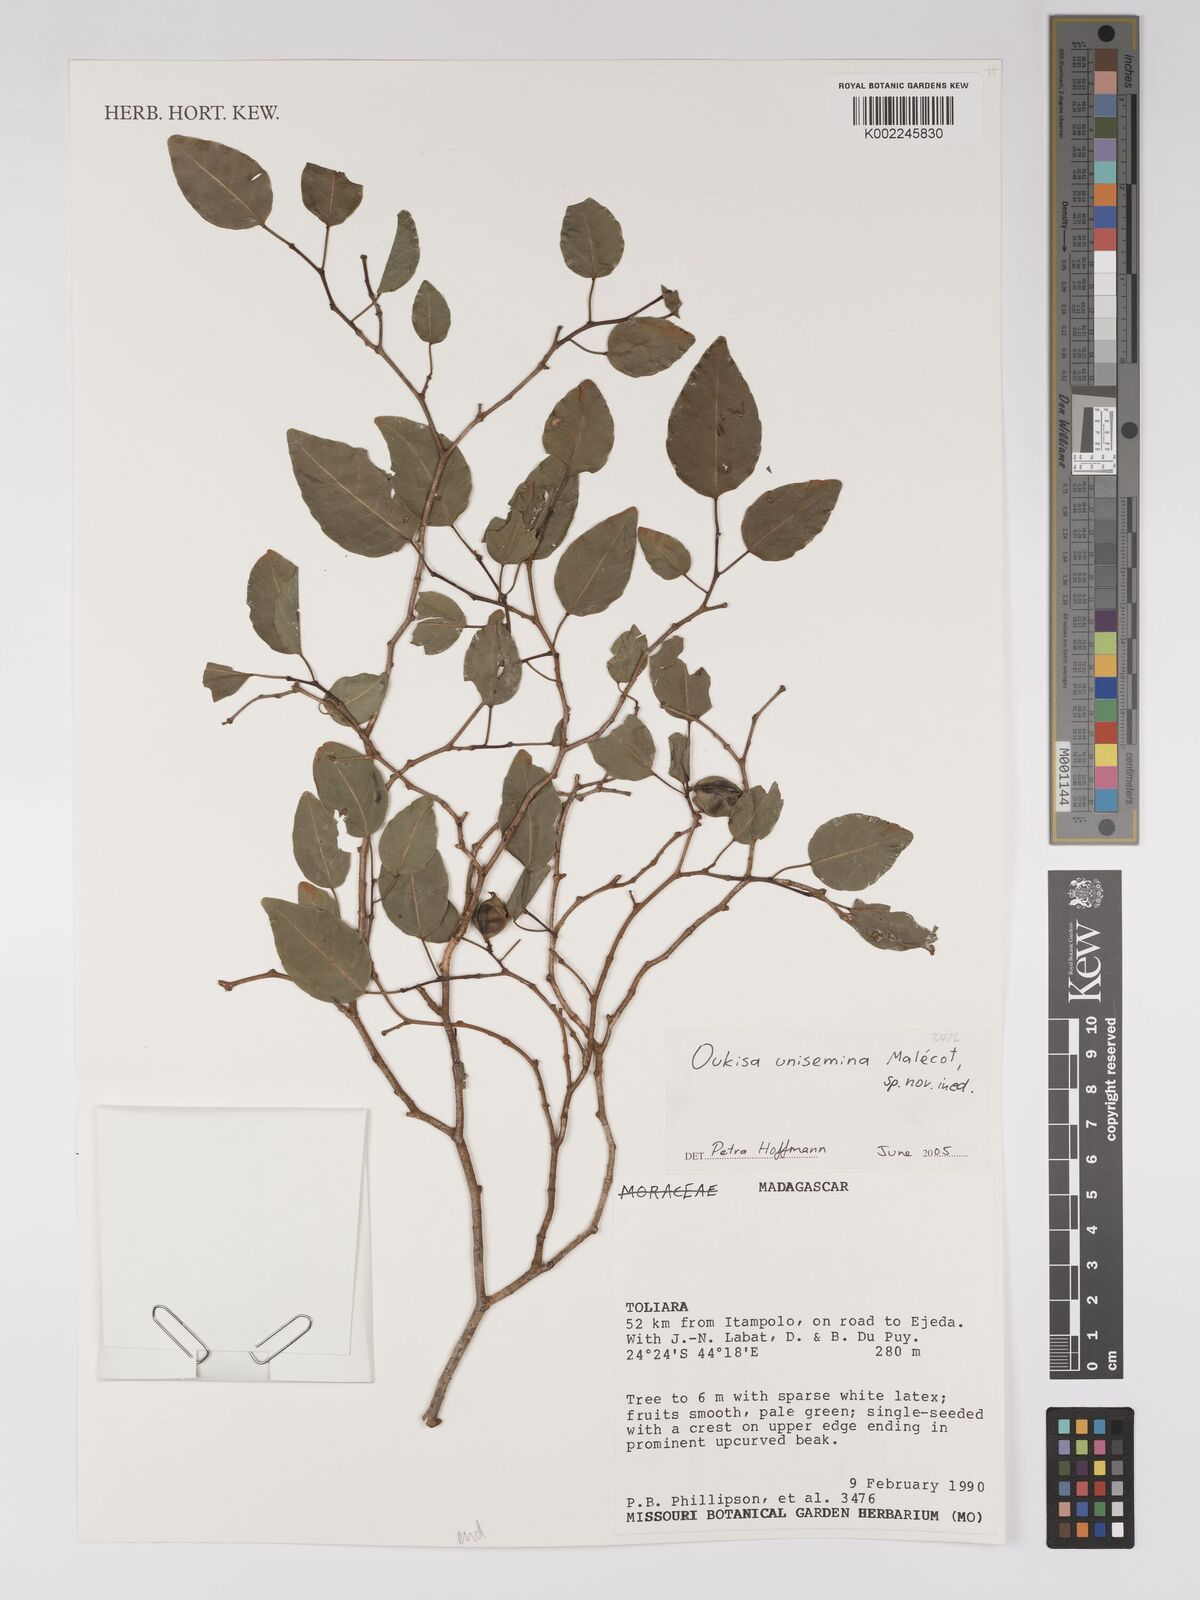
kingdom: Plantae
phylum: Tracheophyta
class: Magnoliopsida
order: Malpighiales
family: Euphorbiaceae
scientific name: Euphorbiaceae
